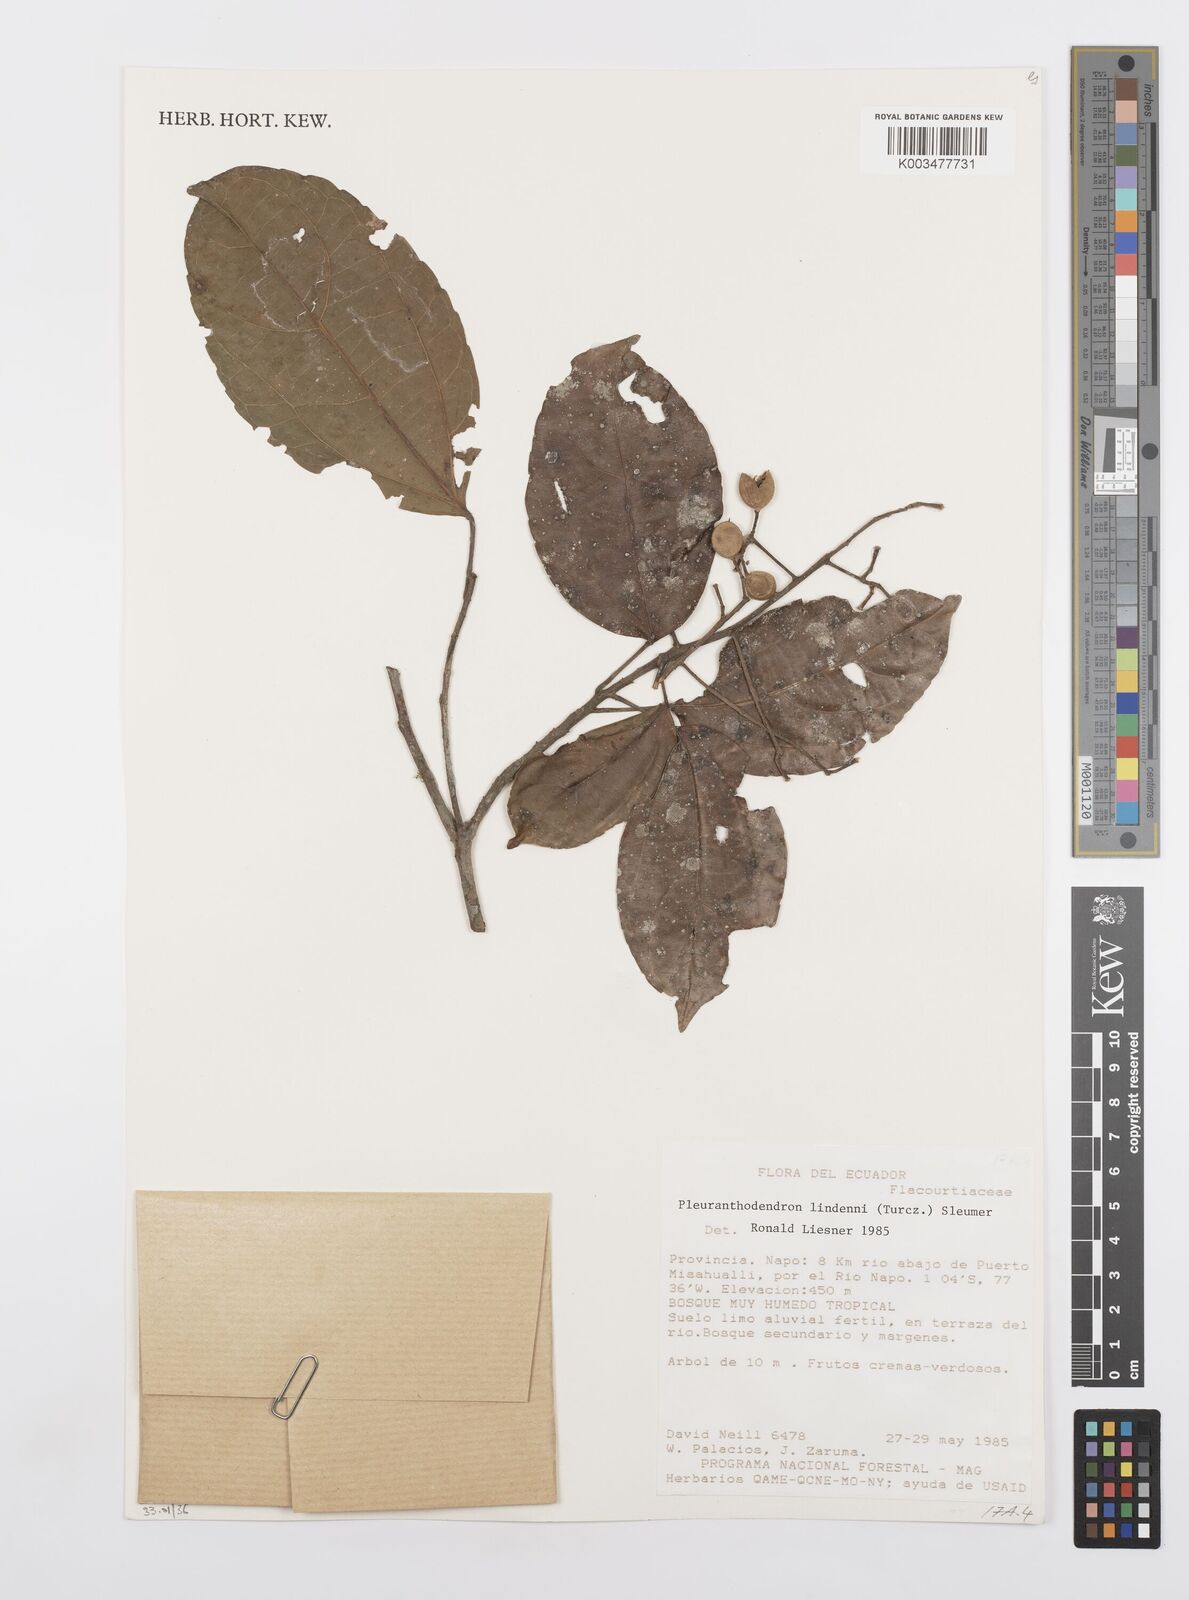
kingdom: Plantae
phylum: Tracheophyta
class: Magnoliopsida
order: Malpighiales
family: Salicaceae
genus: Pleuranthodendron
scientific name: Pleuranthodendron lindenii
